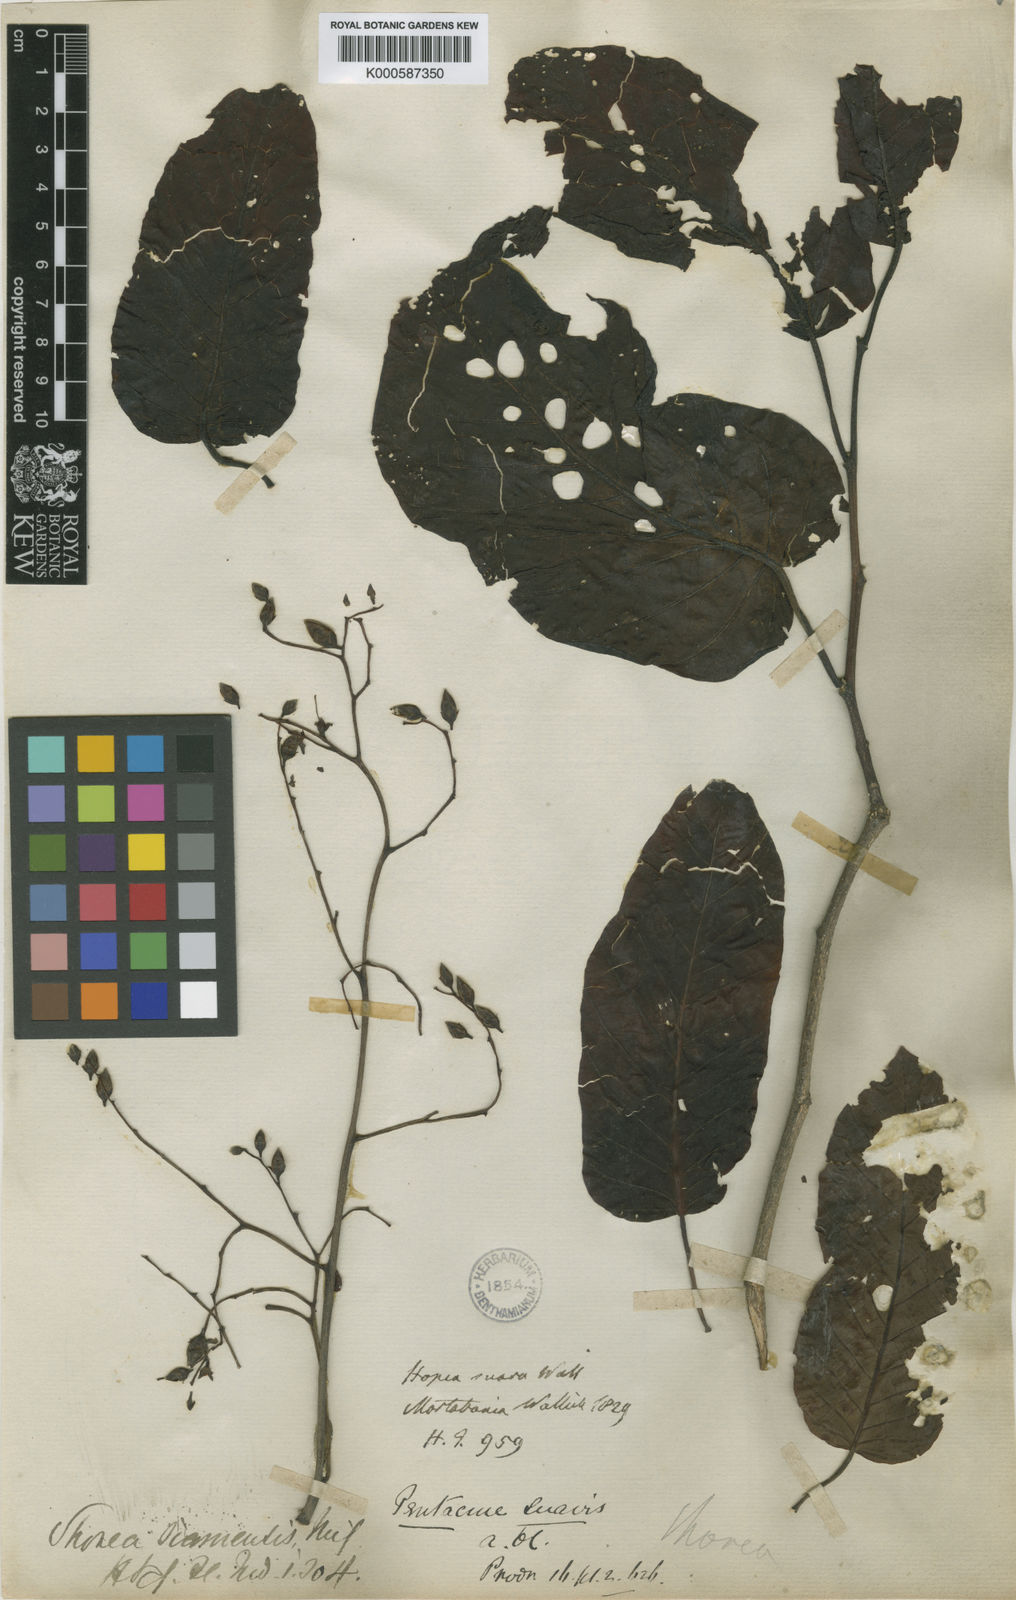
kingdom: Plantae
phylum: Tracheophyta
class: Magnoliopsida
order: Malvales
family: Dipterocarpaceae
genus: Pentacme
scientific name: Pentacme siamensis
